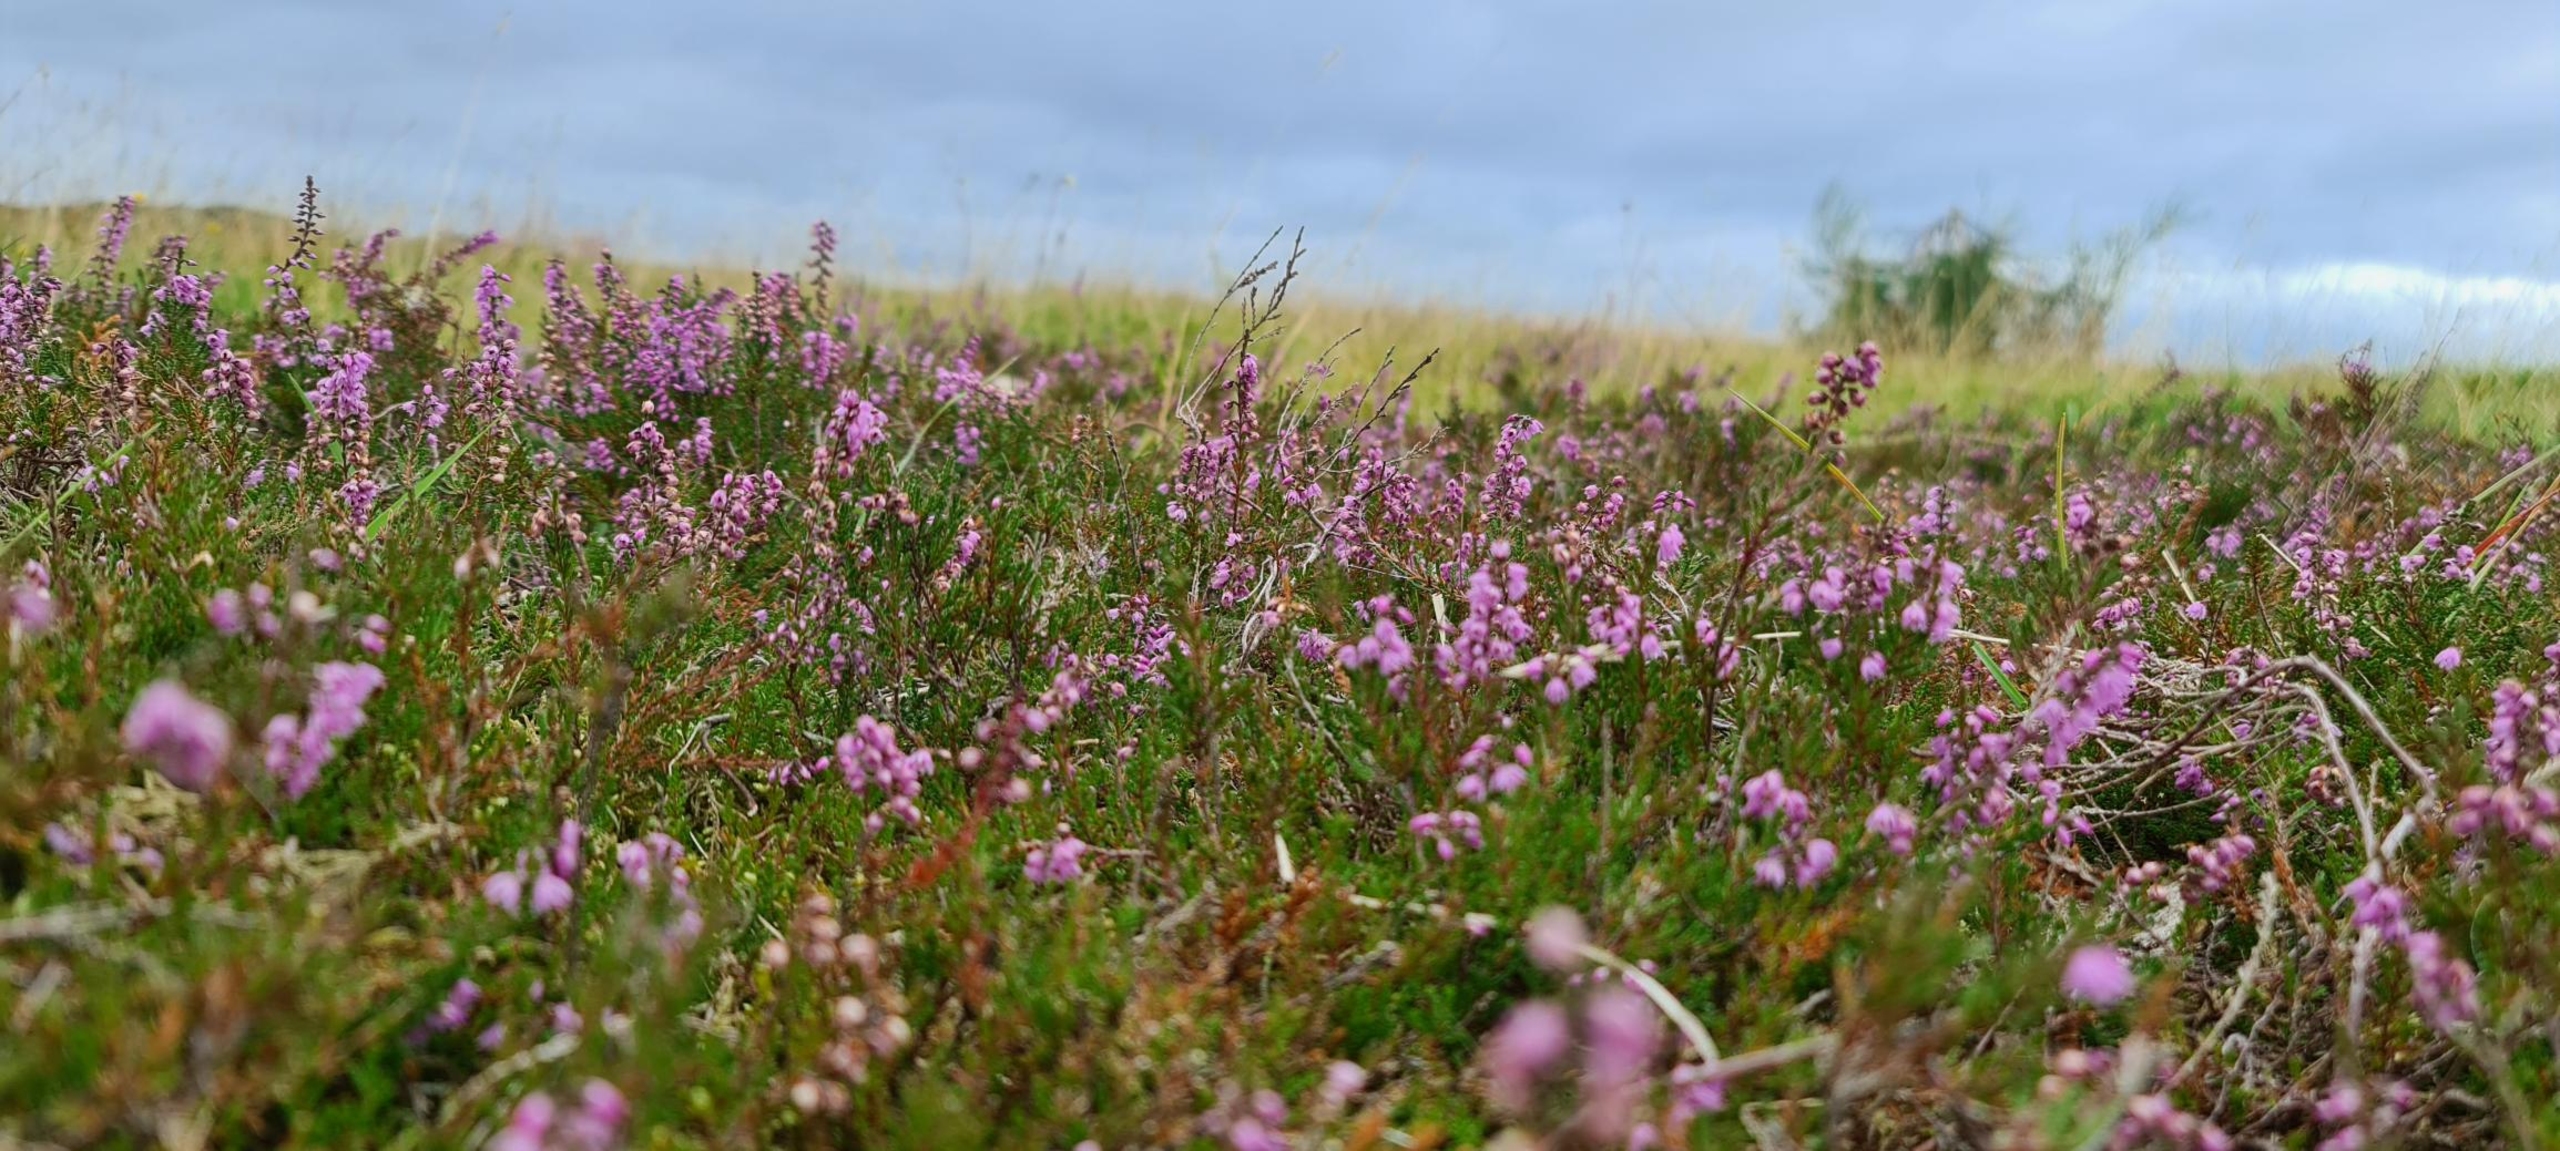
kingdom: Plantae
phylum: Tracheophyta
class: Magnoliopsida
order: Ericales
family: Ericaceae
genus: Calluna
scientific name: Calluna vulgaris
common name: Hedelyng
